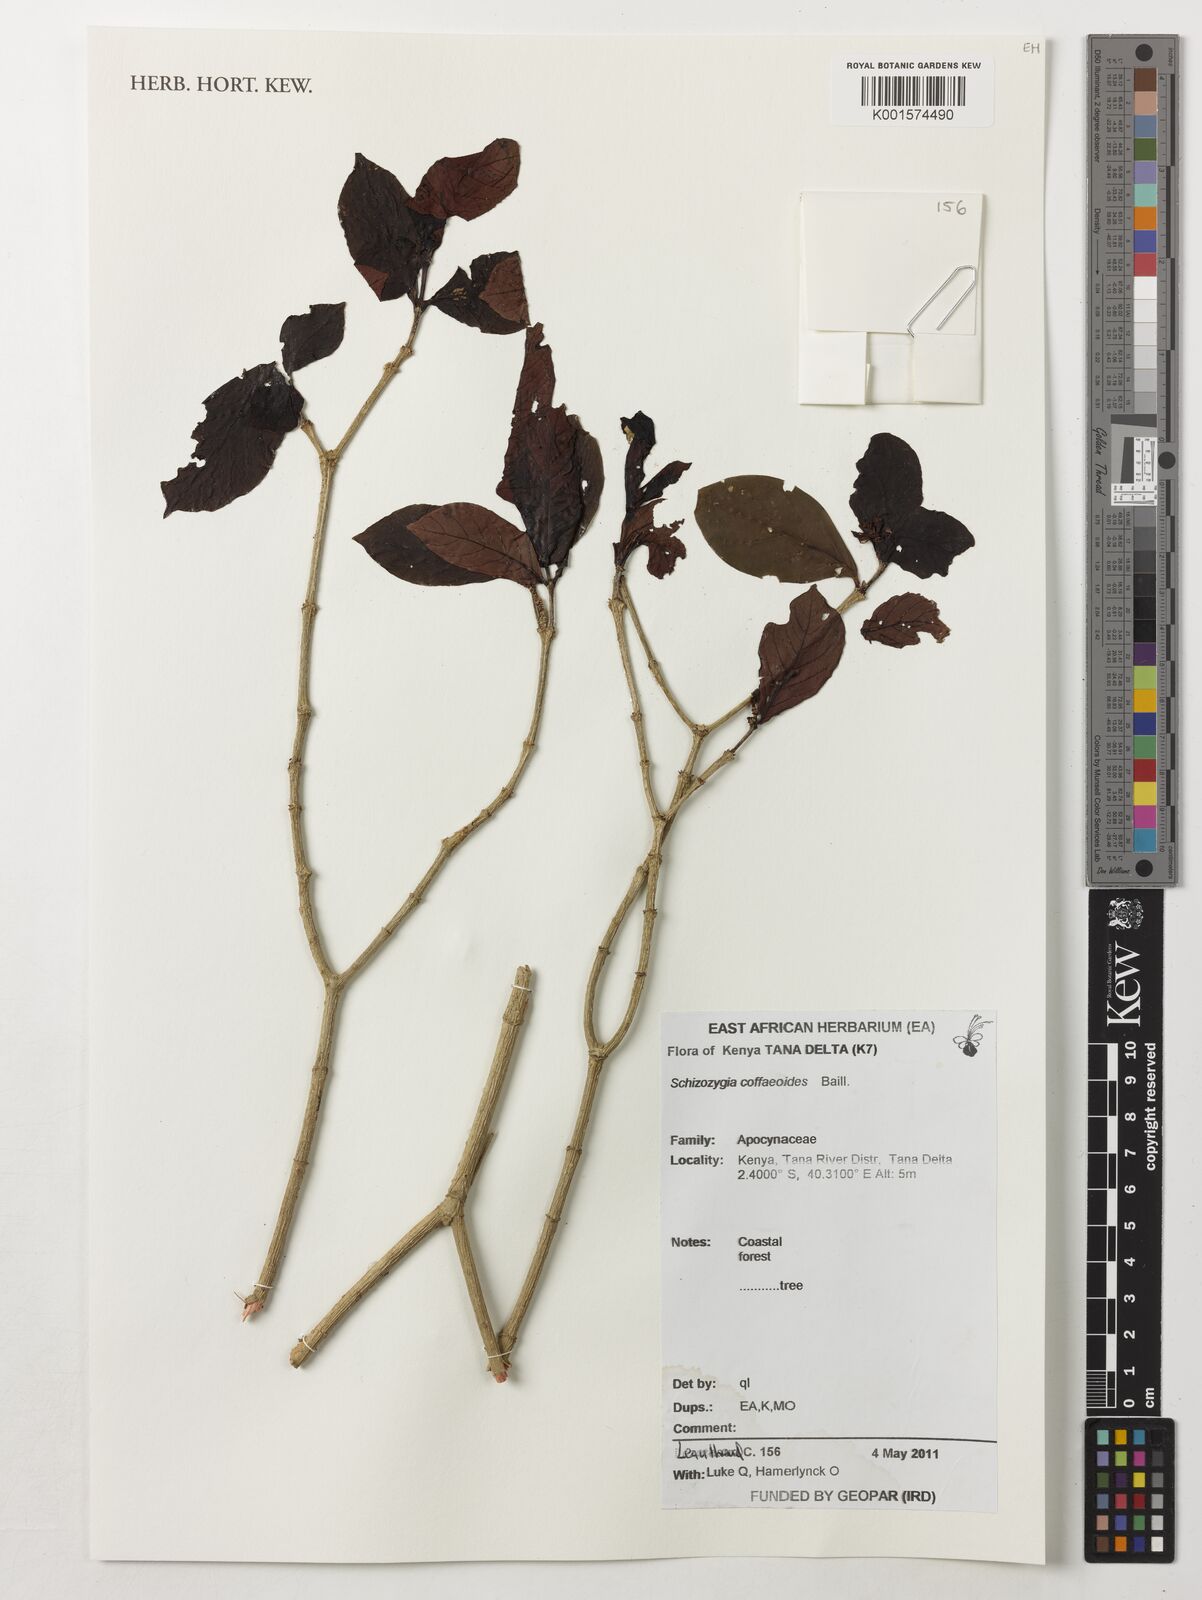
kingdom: Plantae
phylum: Tracheophyta
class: Magnoliopsida
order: Gentianales
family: Apocynaceae
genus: Schizozygia
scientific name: Schizozygia coffeoides
